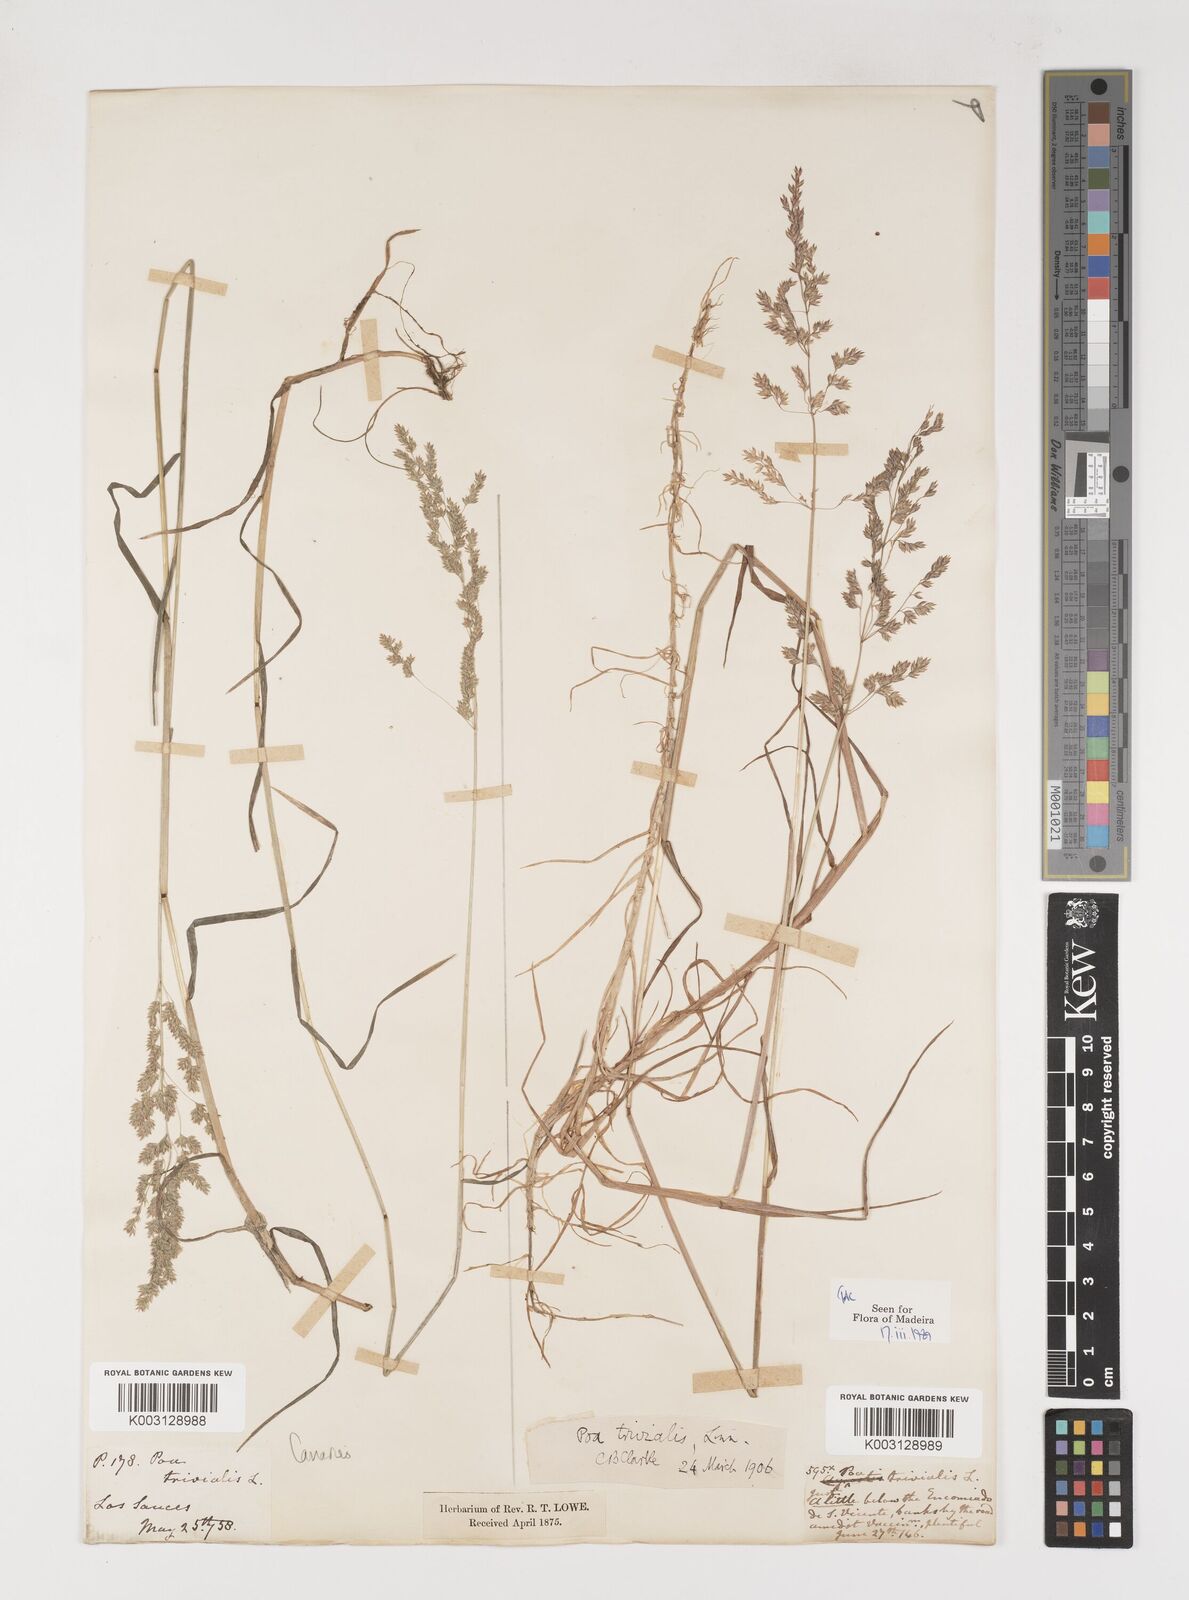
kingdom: Plantae
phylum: Tracheophyta
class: Liliopsida
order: Poales
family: Poaceae
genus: Poa
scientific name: Poa trivialis
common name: Rough bluegrass
